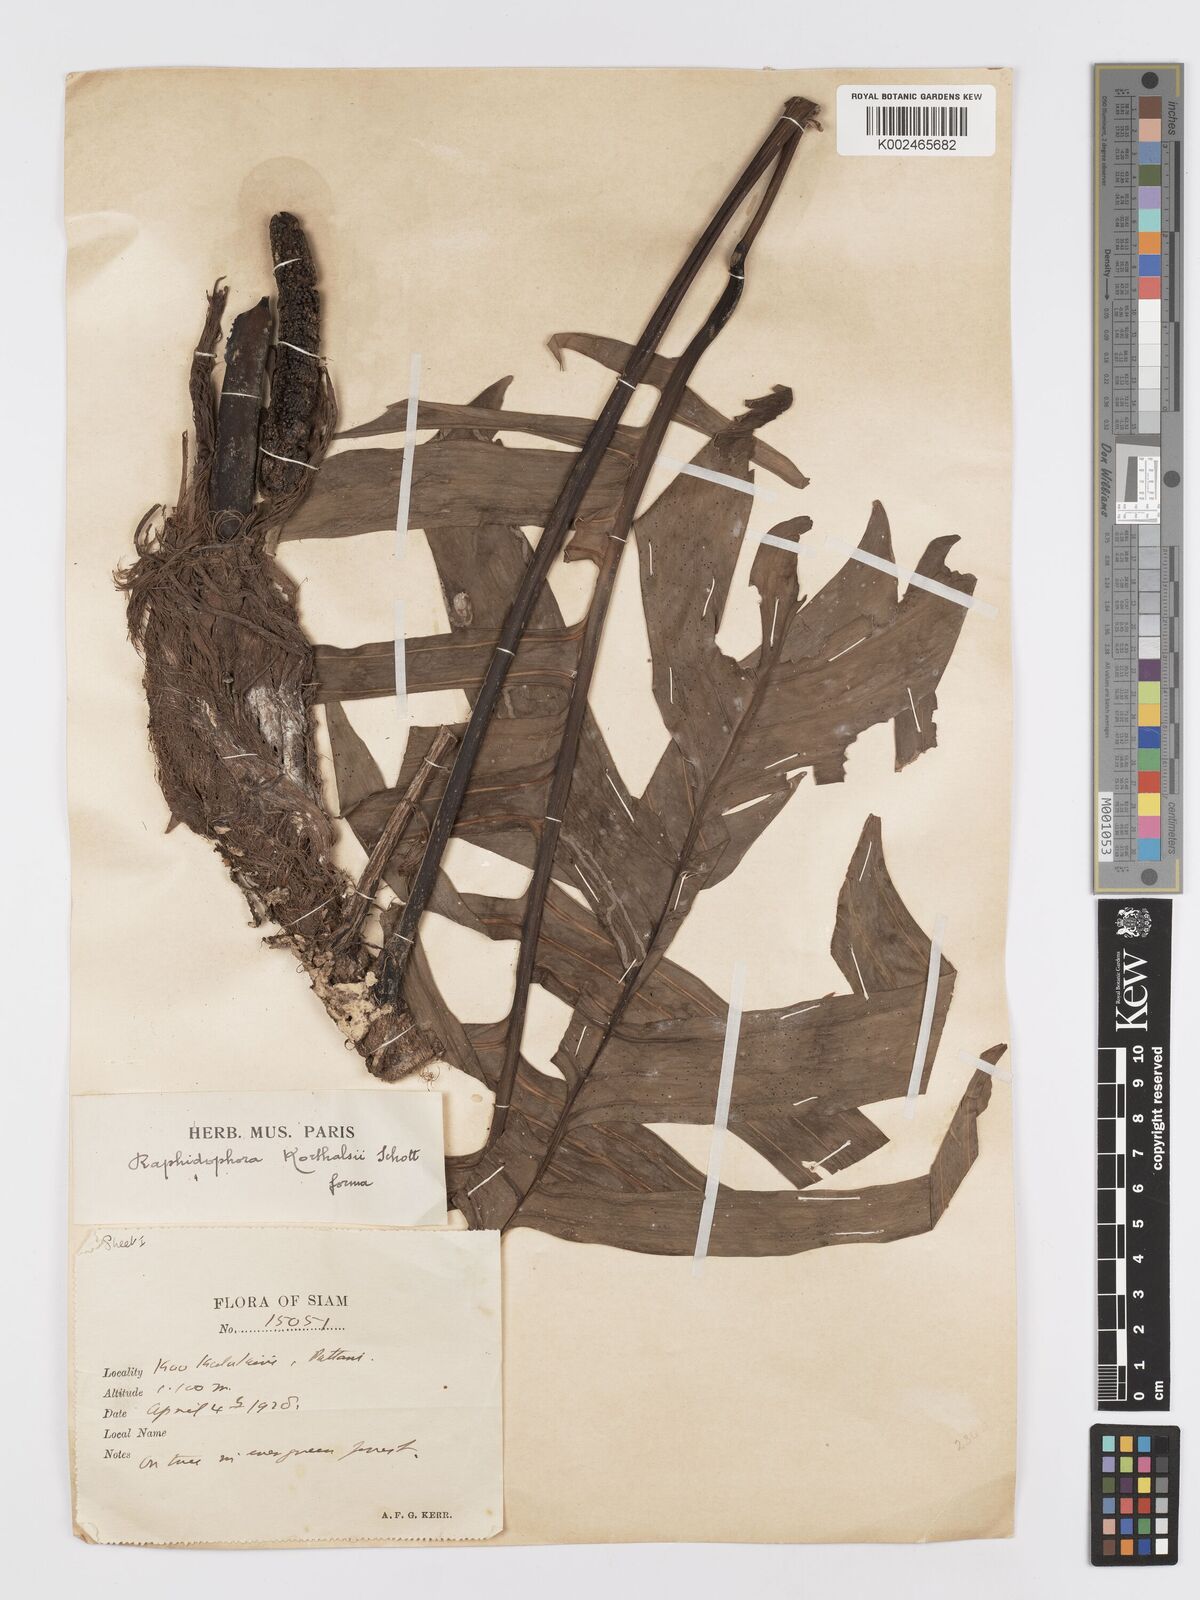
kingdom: Plantae
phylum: Tracheophyta
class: Liliopsida
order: Alismatales
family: Araceae
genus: Rhaphidophora
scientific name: Rhaphidophora korthalsii
